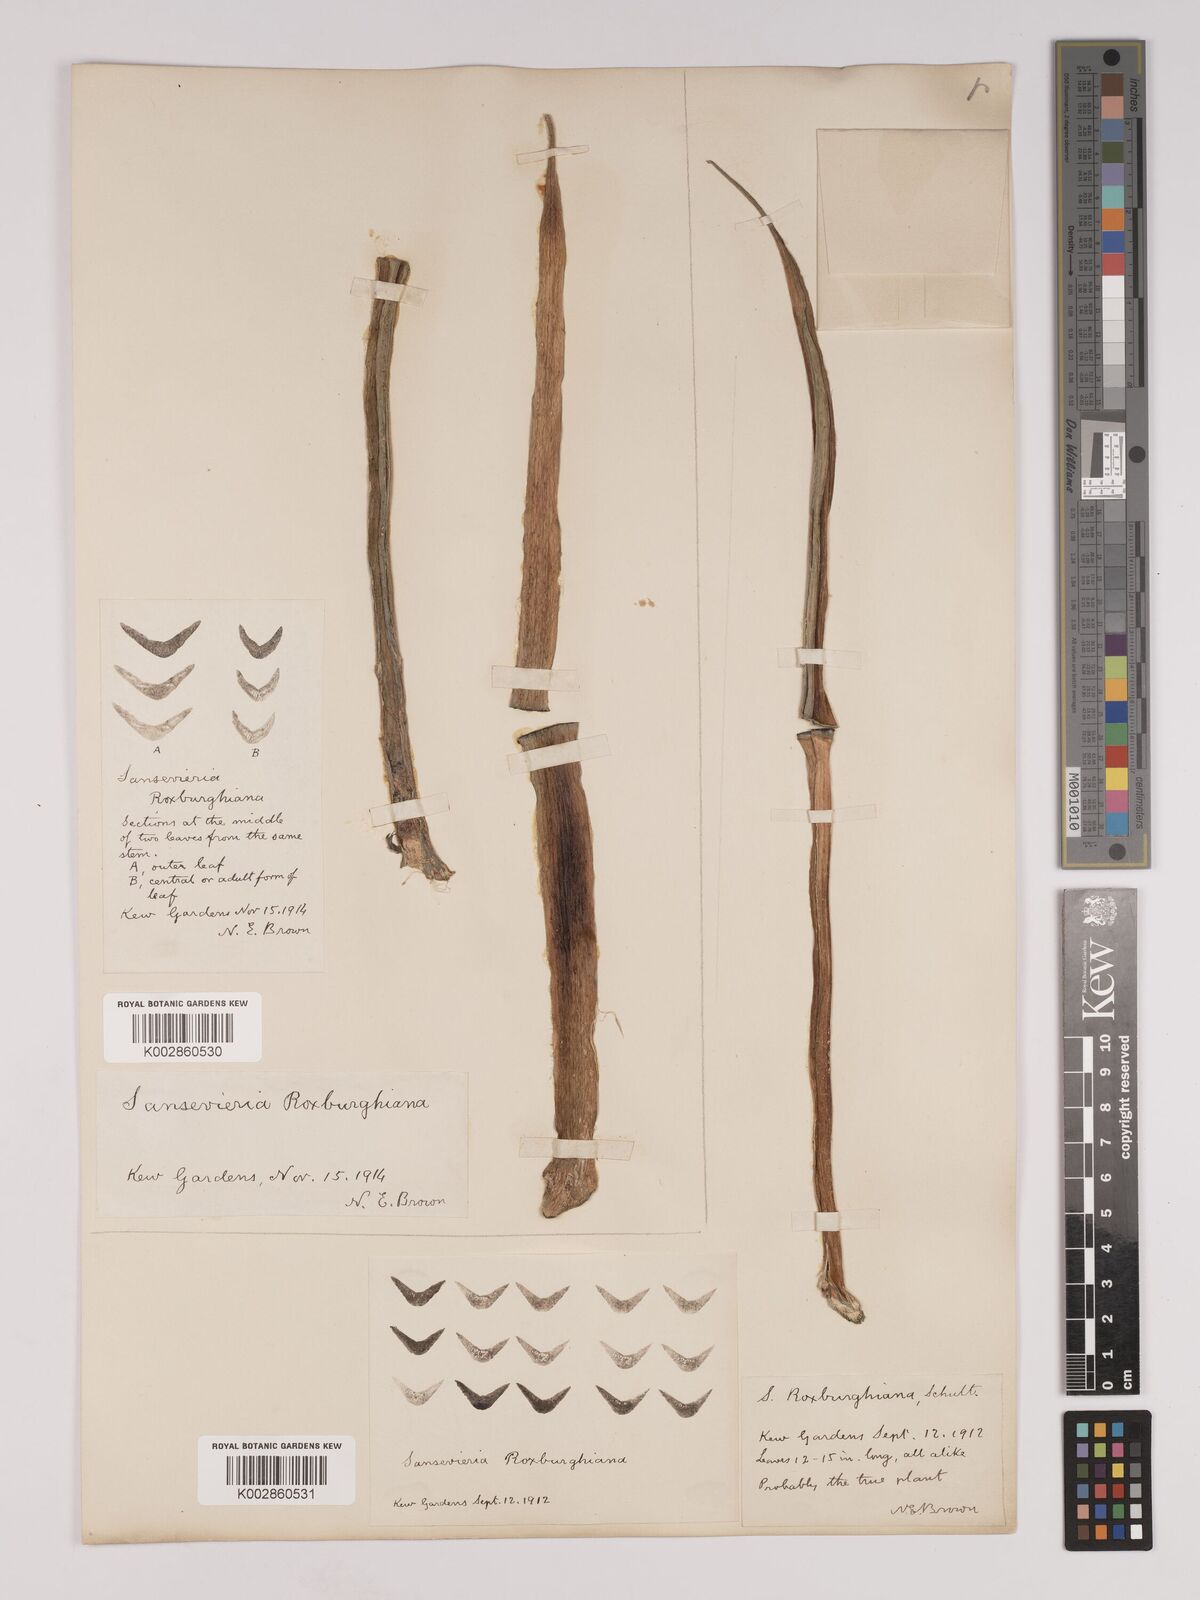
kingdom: Plantae
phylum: Tracheophyta
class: Liliopsida
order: Asparagales
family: Asparagaceae
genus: Dracaena
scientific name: Dracaena roxburghiana
